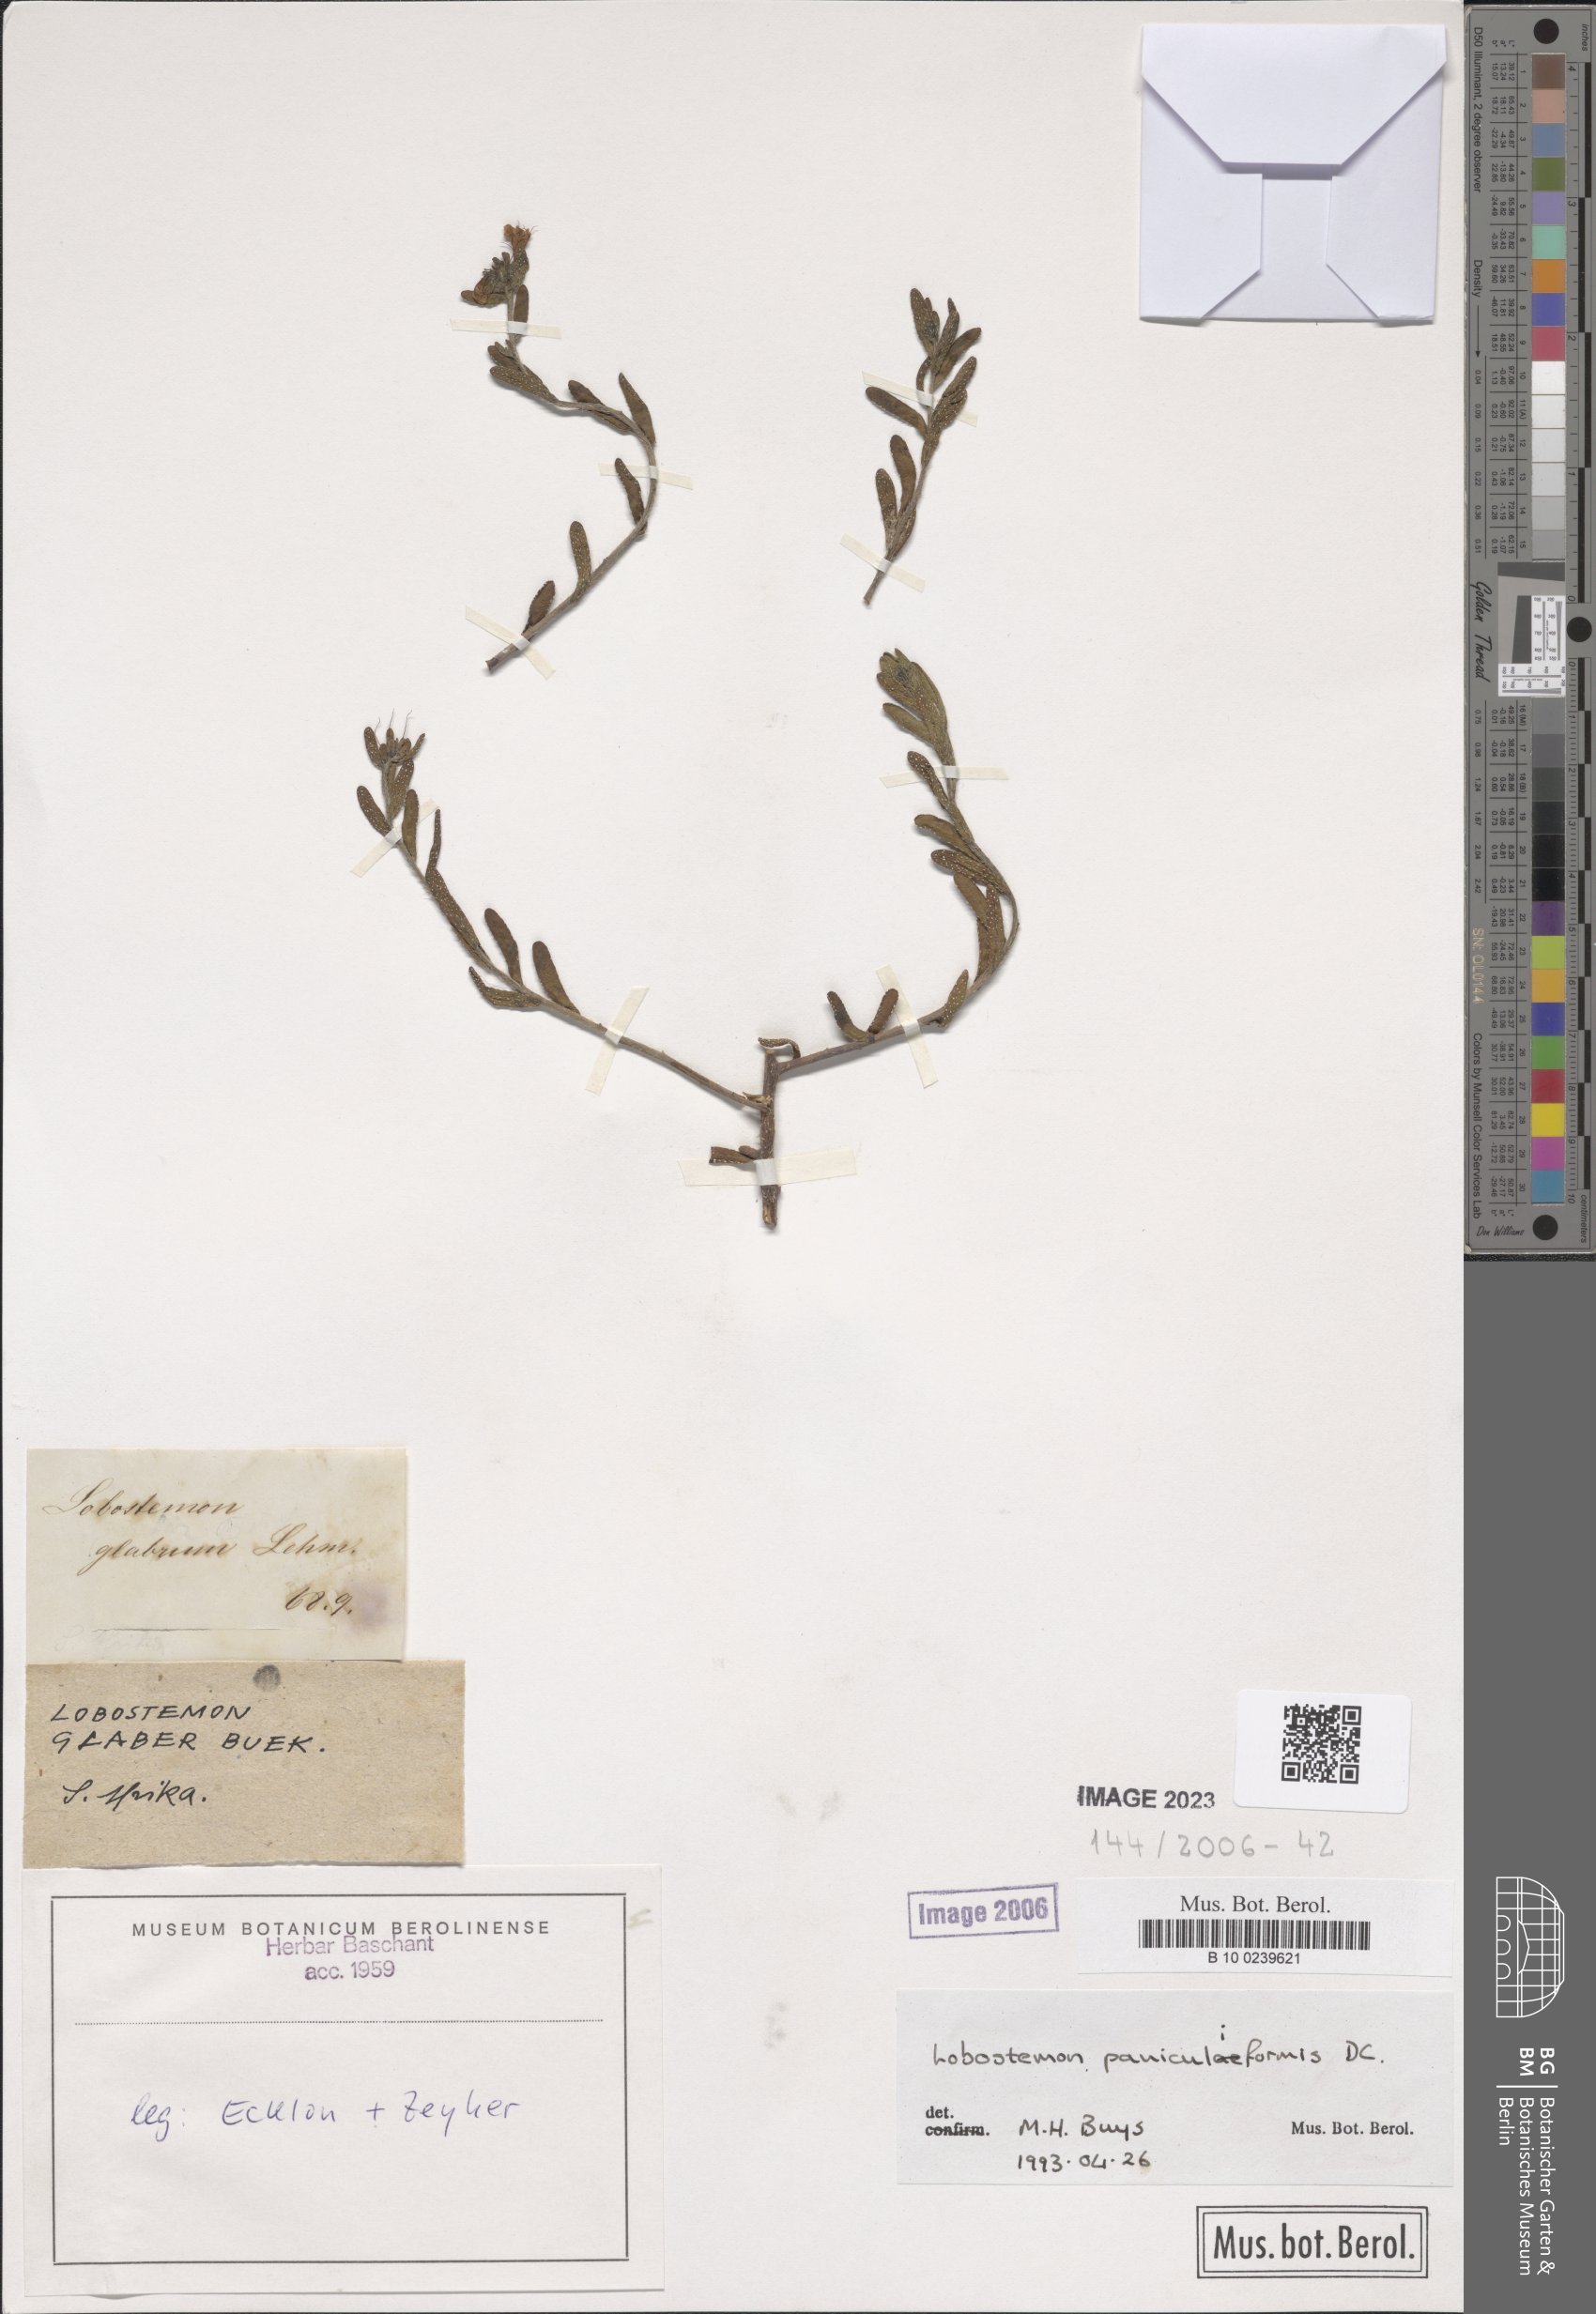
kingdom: Plantae
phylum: Tracheophyta
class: Magnoliopsida
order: Boraginales
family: Boraginaceae
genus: Lobostemon
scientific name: Lobostemon paniculiformis
